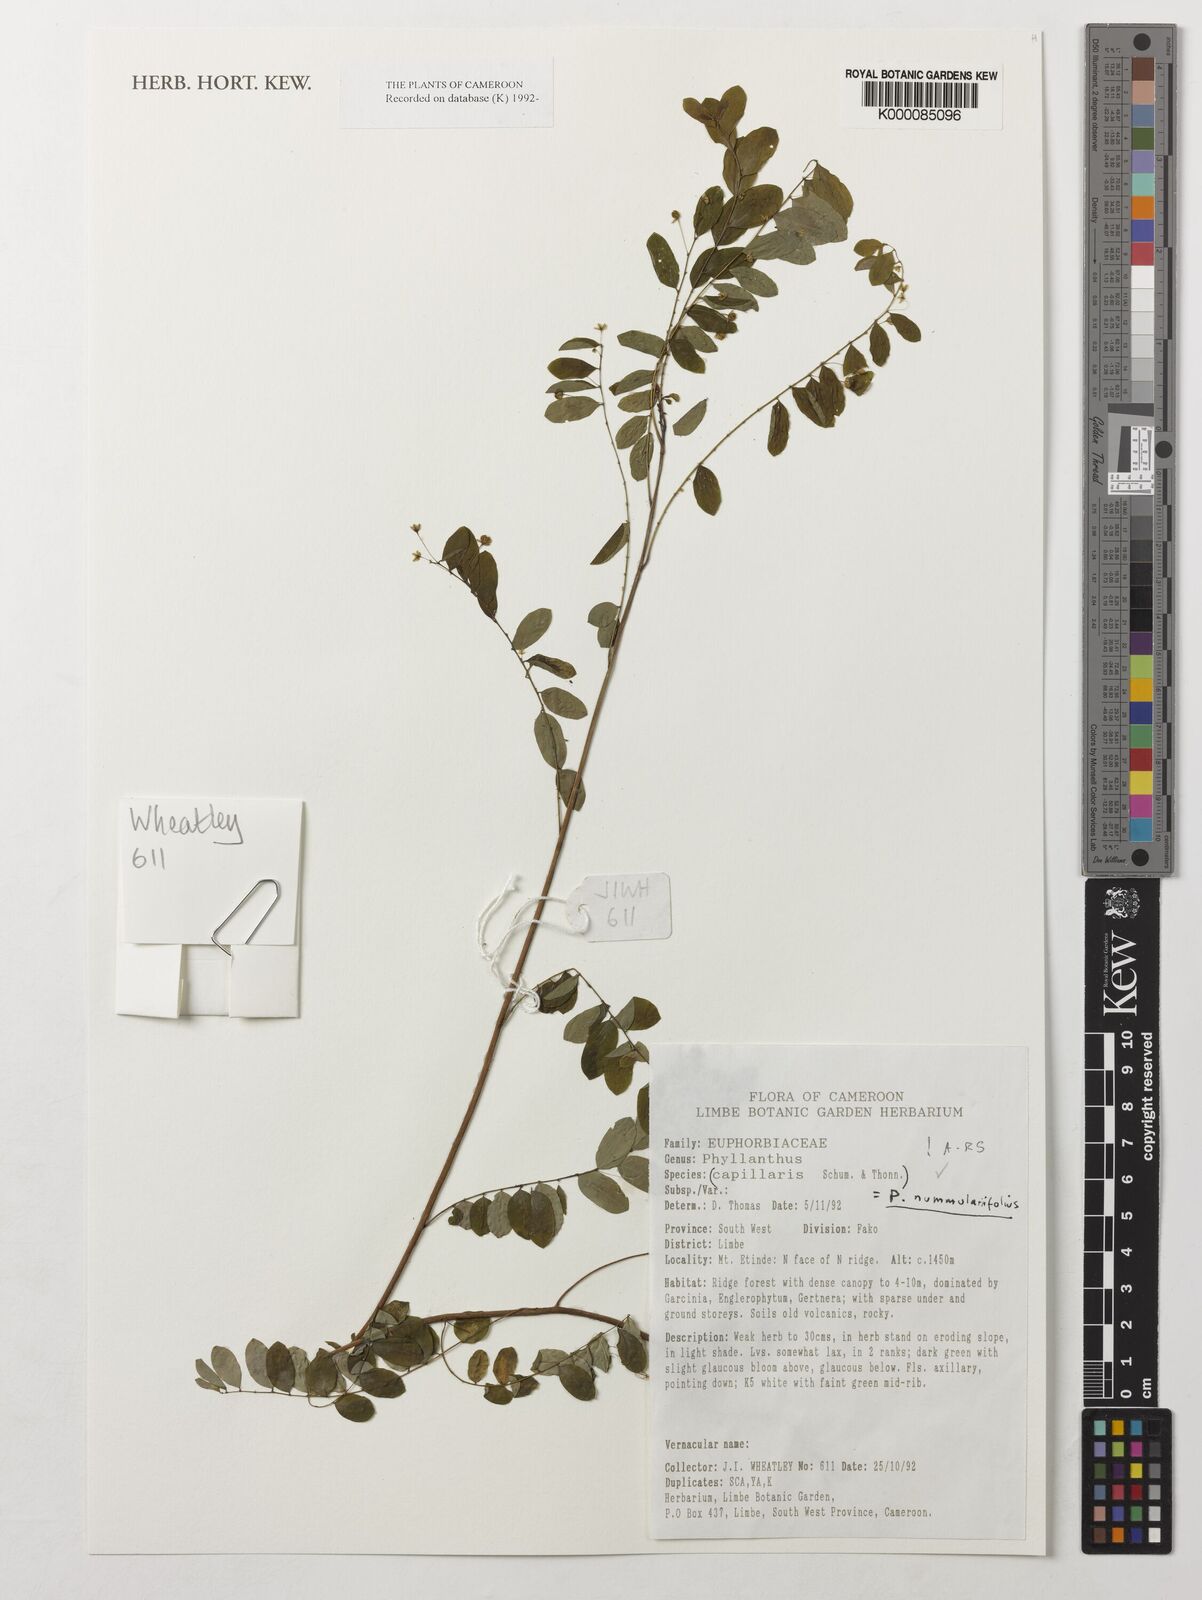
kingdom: Plantae
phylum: Tracheophyta
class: Magnoliopsida
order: Malpighiales
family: Phyllanthaceae
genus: Phyllanthus
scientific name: Phyllanthus nummulariifolius
